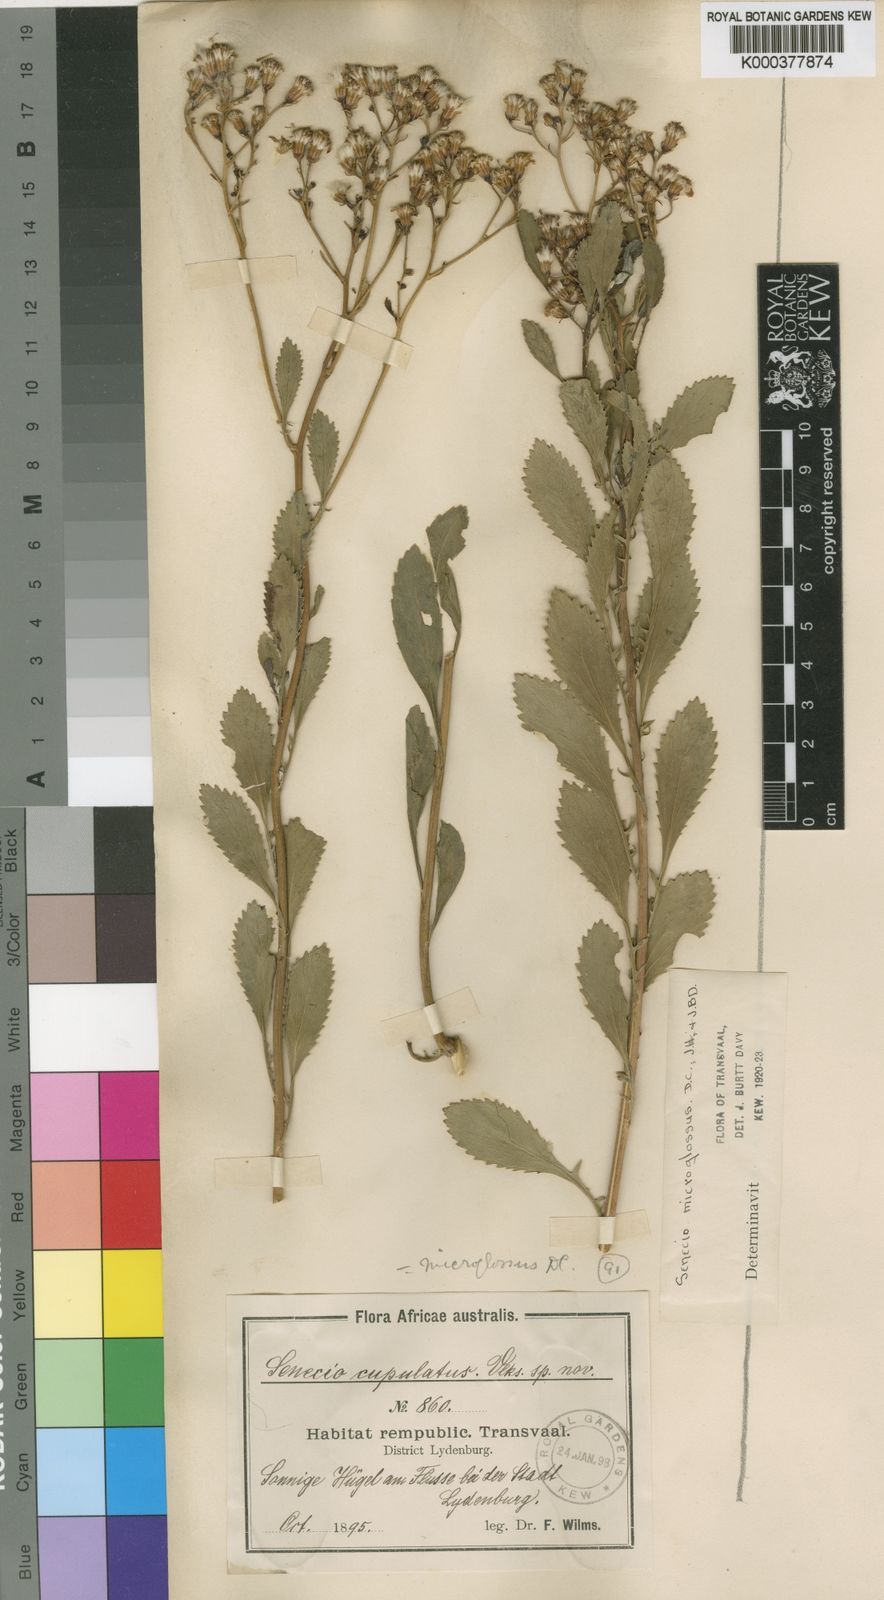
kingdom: Plantae
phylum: Tracheophyta
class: Magnoliopsida
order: Asterales
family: Asteraceae
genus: Senecio
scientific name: Senecio microglossus
